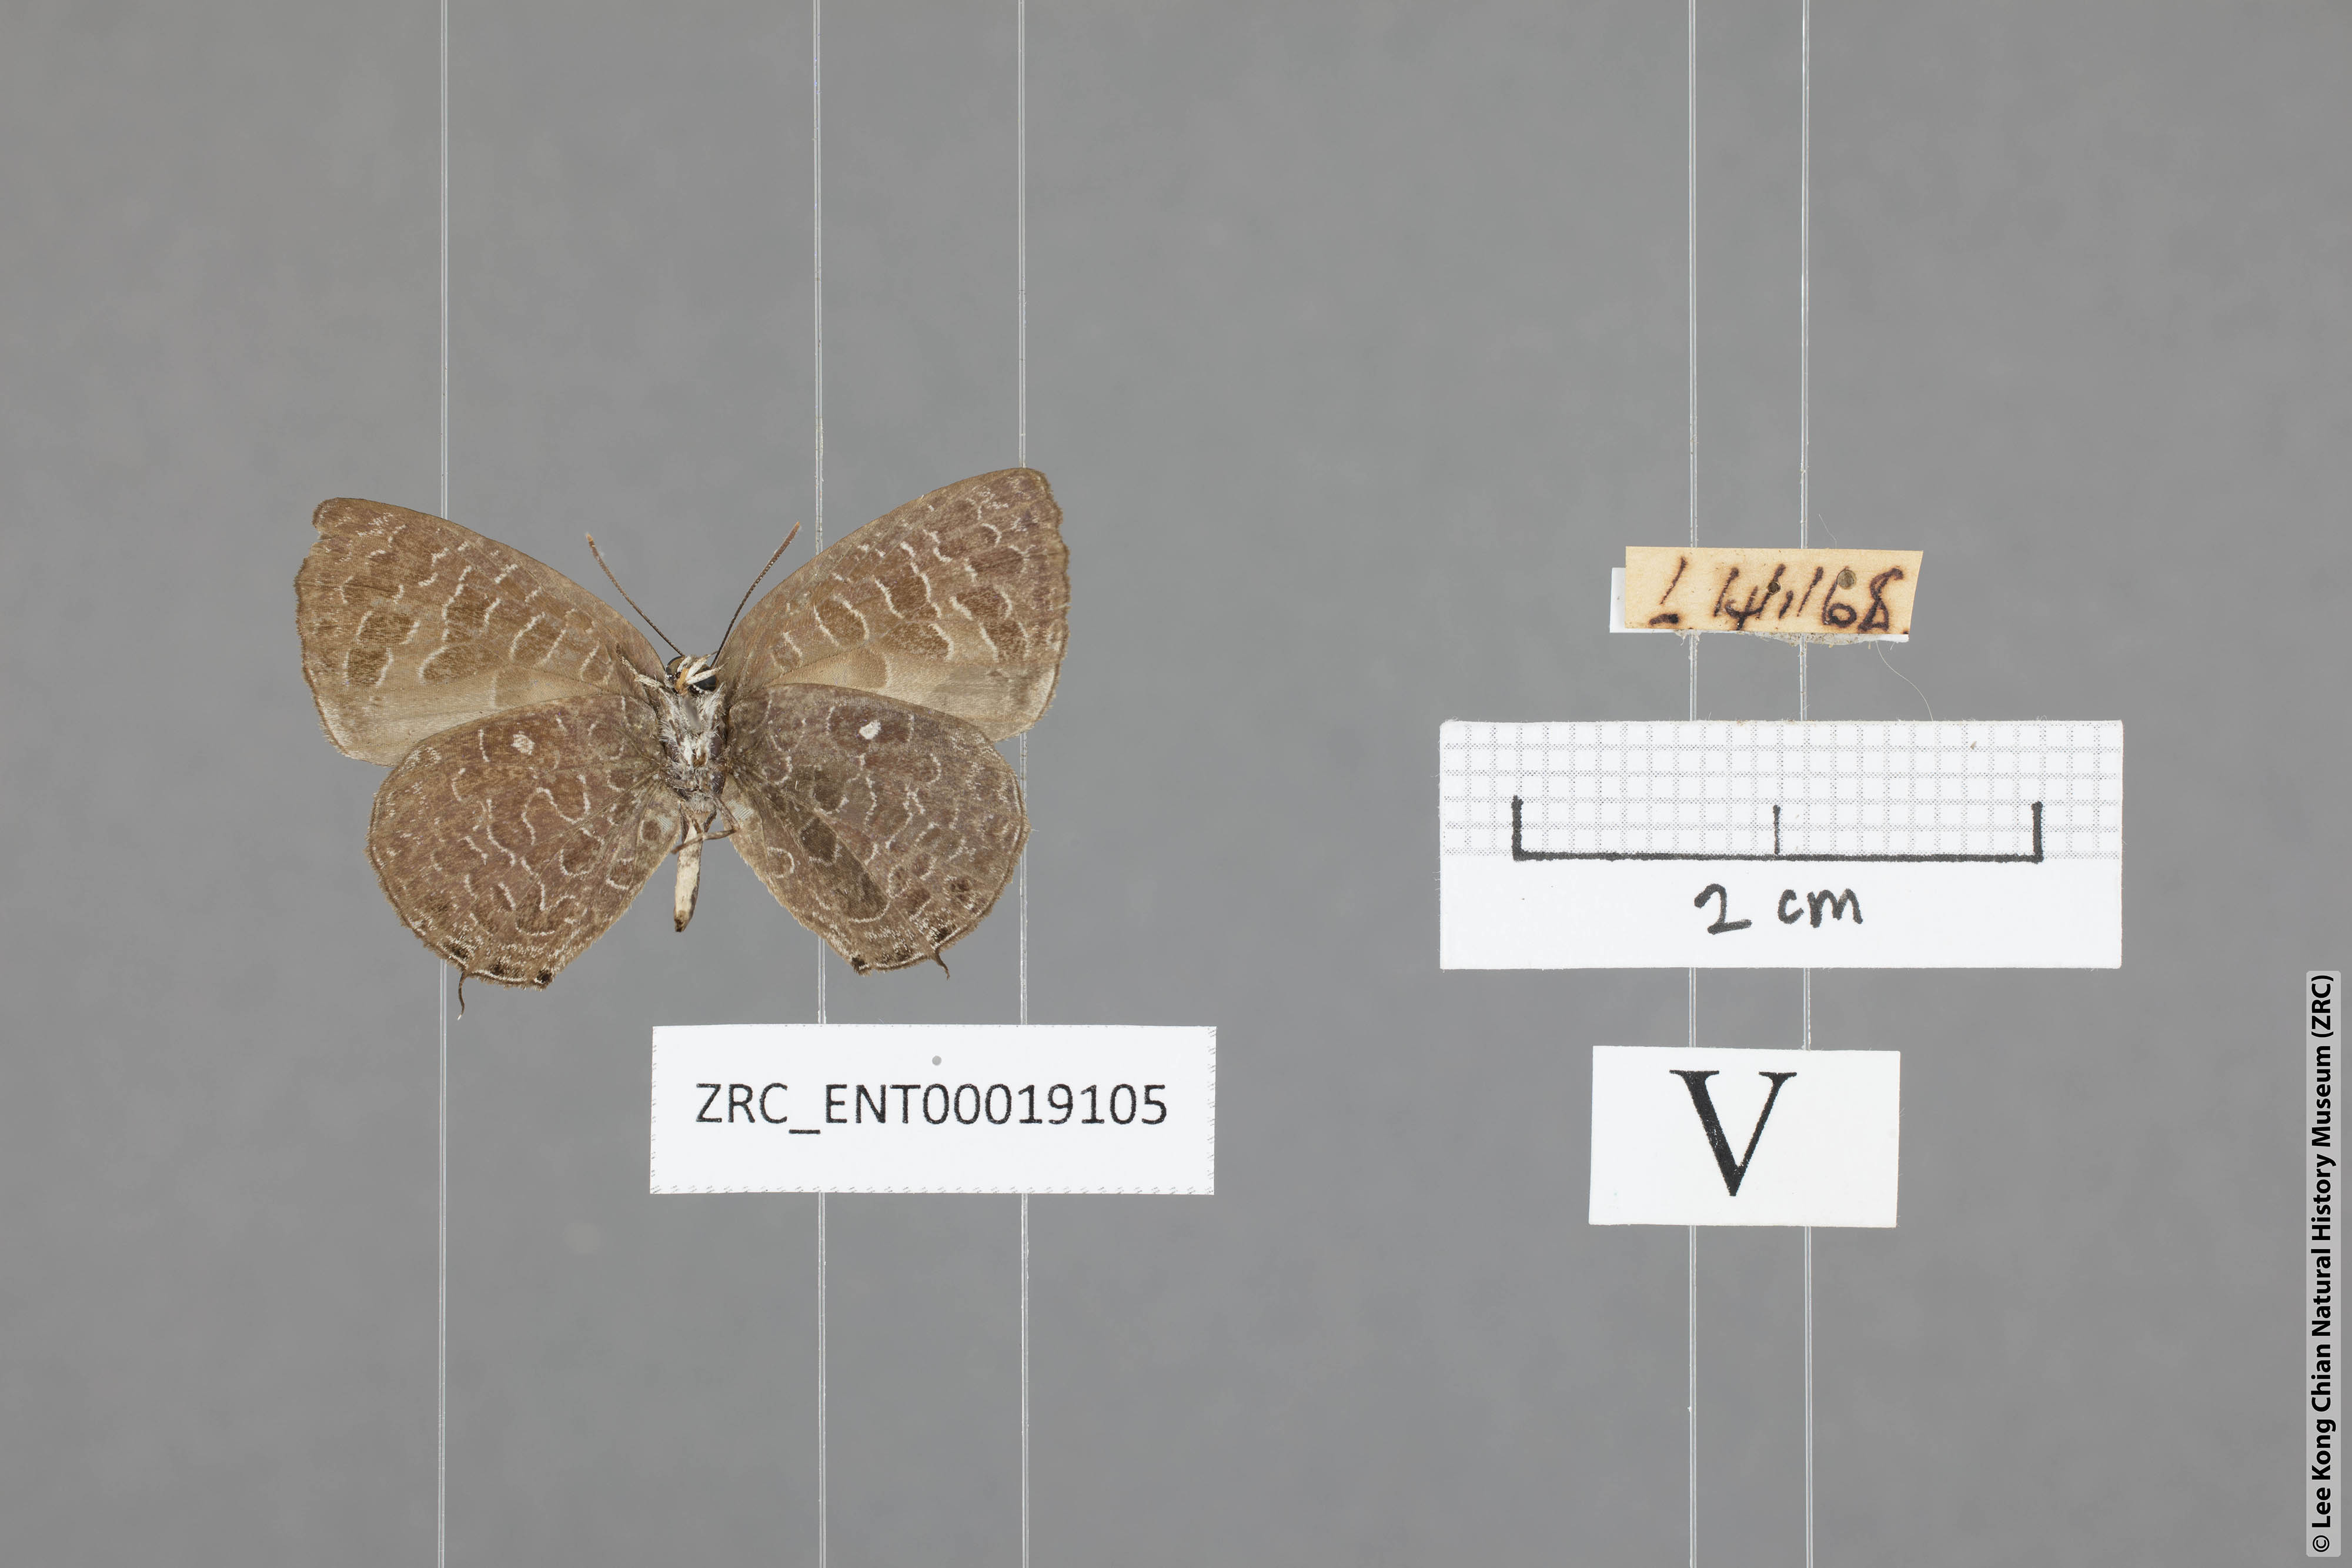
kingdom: Animalia
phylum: Arthropoda
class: Insecta
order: Lepidoptera
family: Lycaenidae
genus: Arhopala
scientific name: Arhopala ammon
